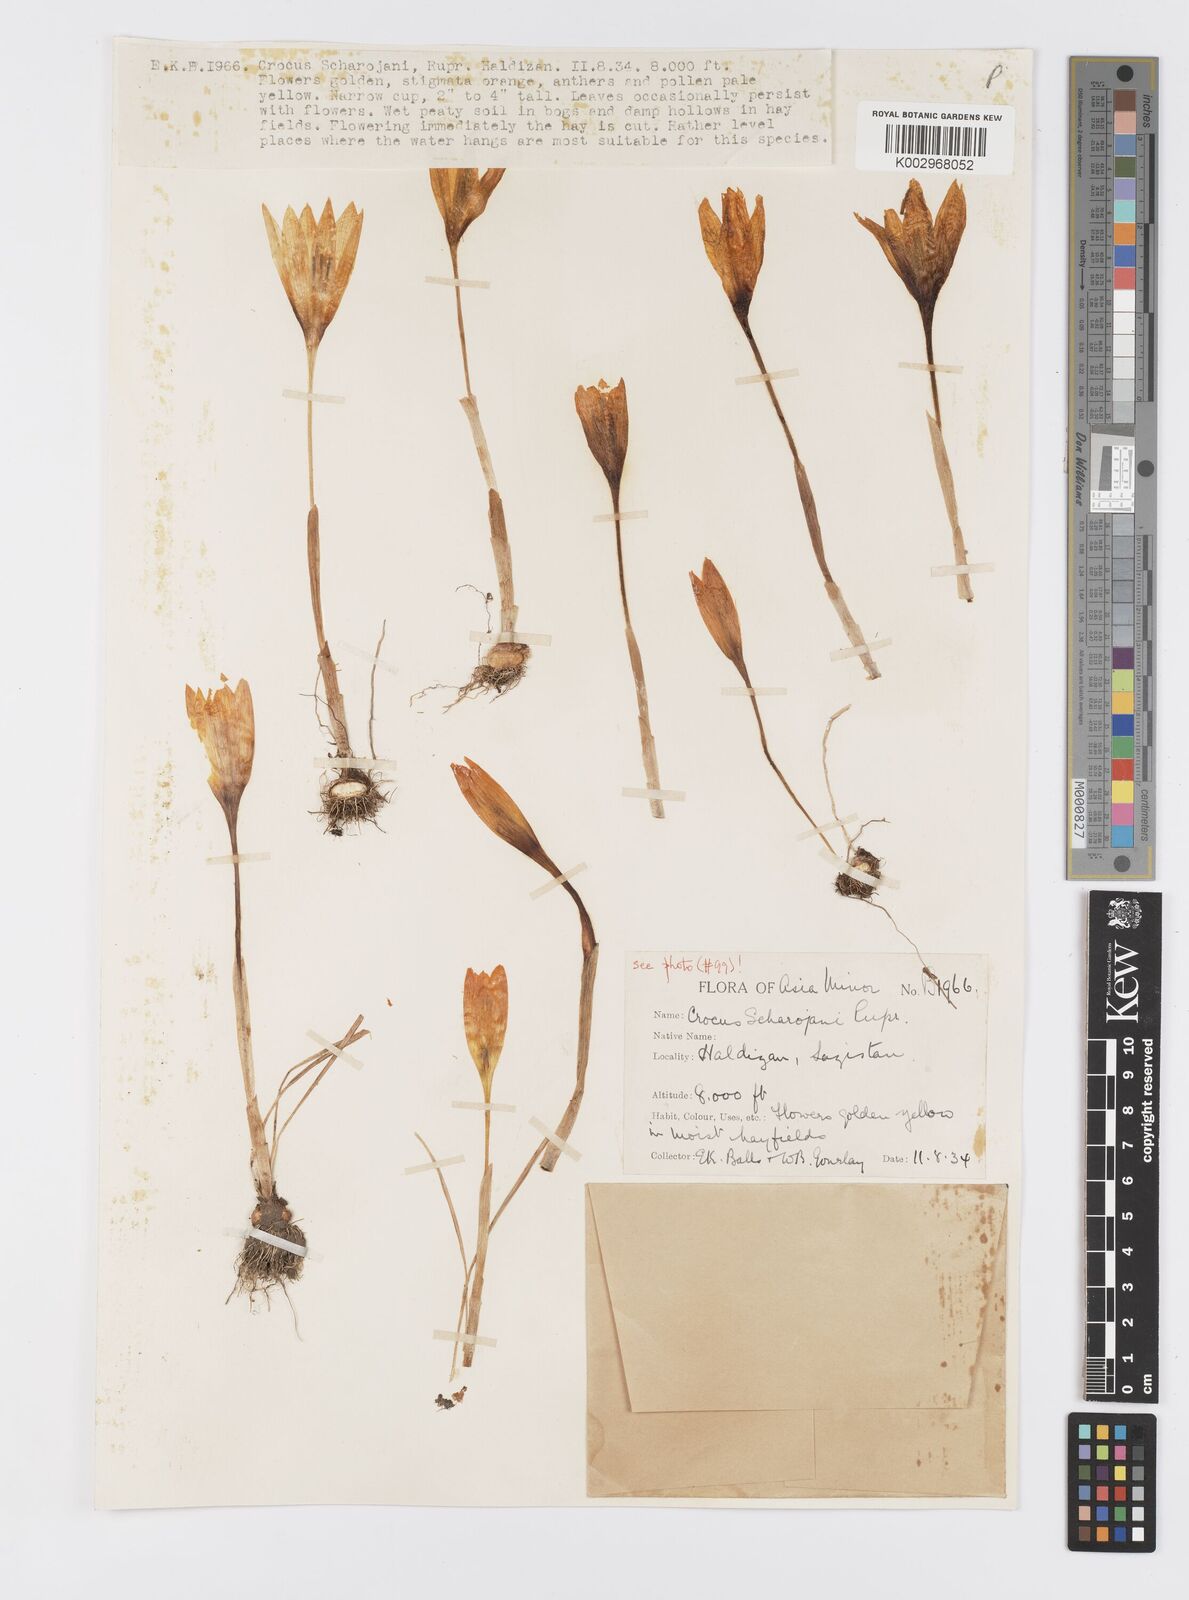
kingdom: Plantae
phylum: Tracheophyta
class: Liliopsida
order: Asparagales
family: Iridaceae
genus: Crocus
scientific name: Crocus lazicus
